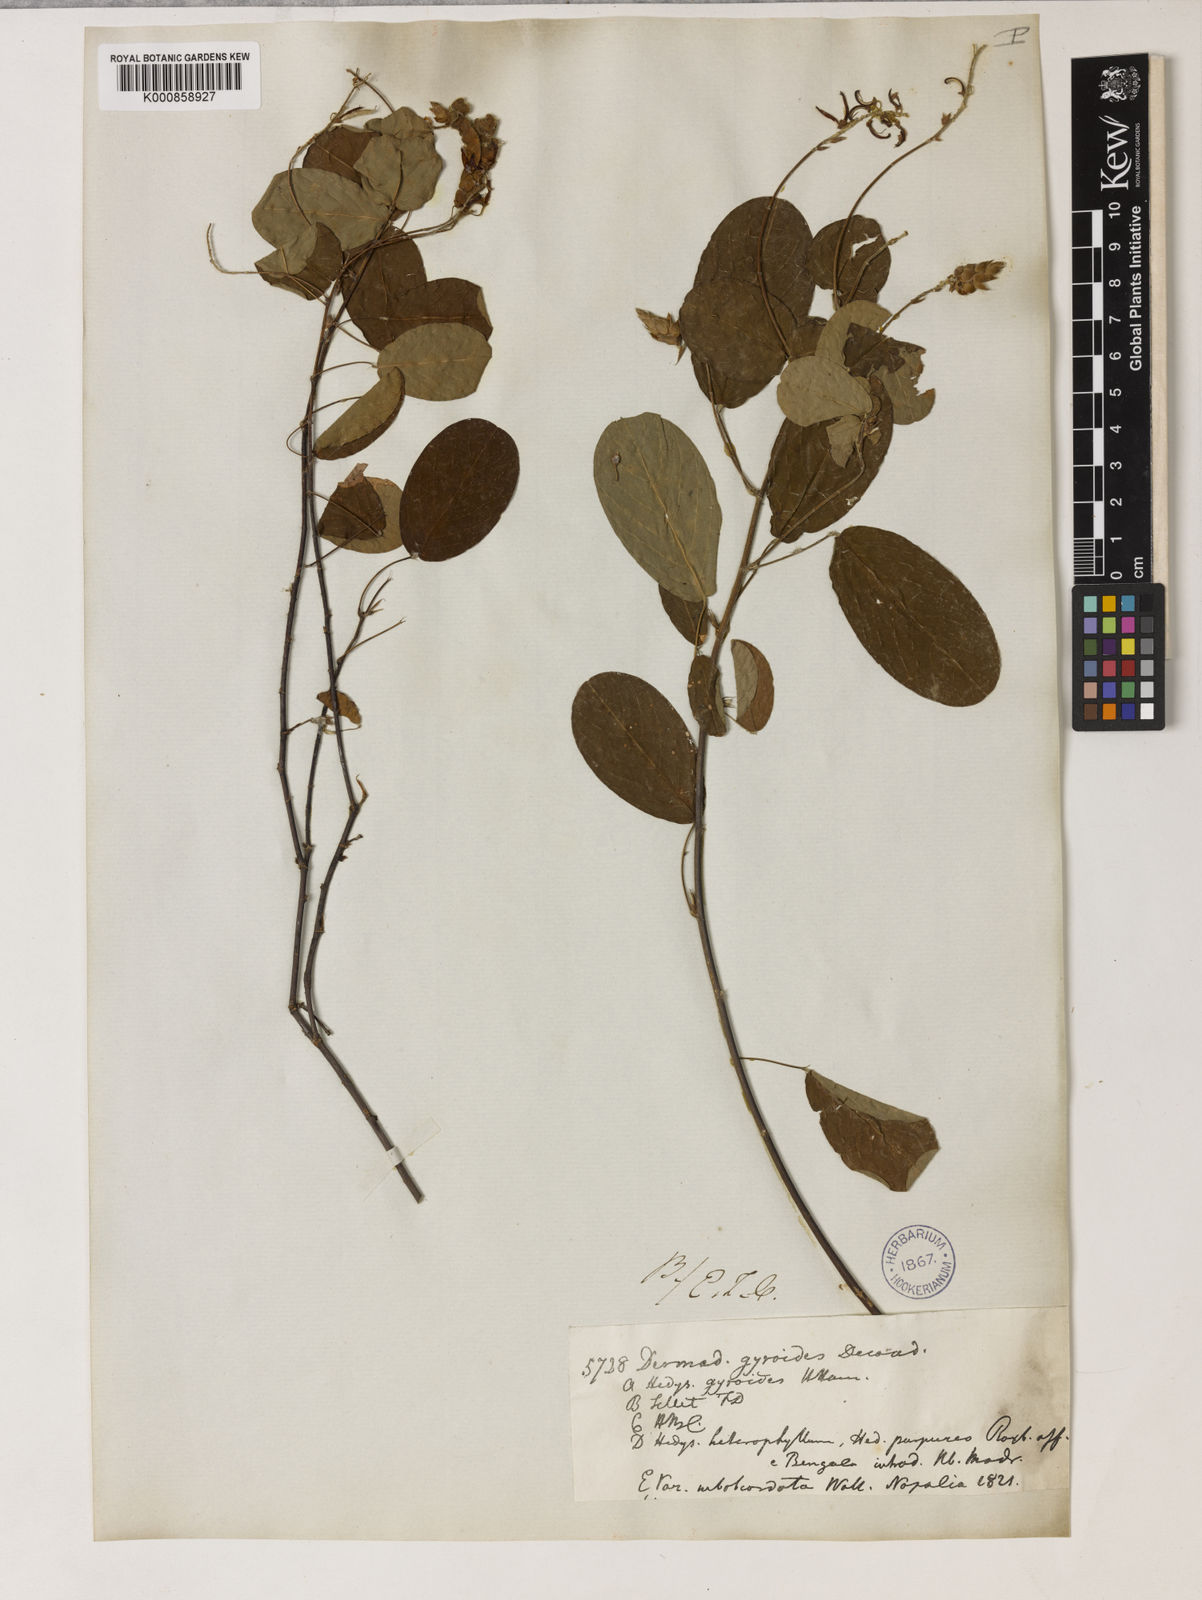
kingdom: Plantae
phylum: Tracheophyta
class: Magnoliopsida
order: Fabales
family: Fabaceae
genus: Codariocalyx
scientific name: Codariocalyx gyroides
